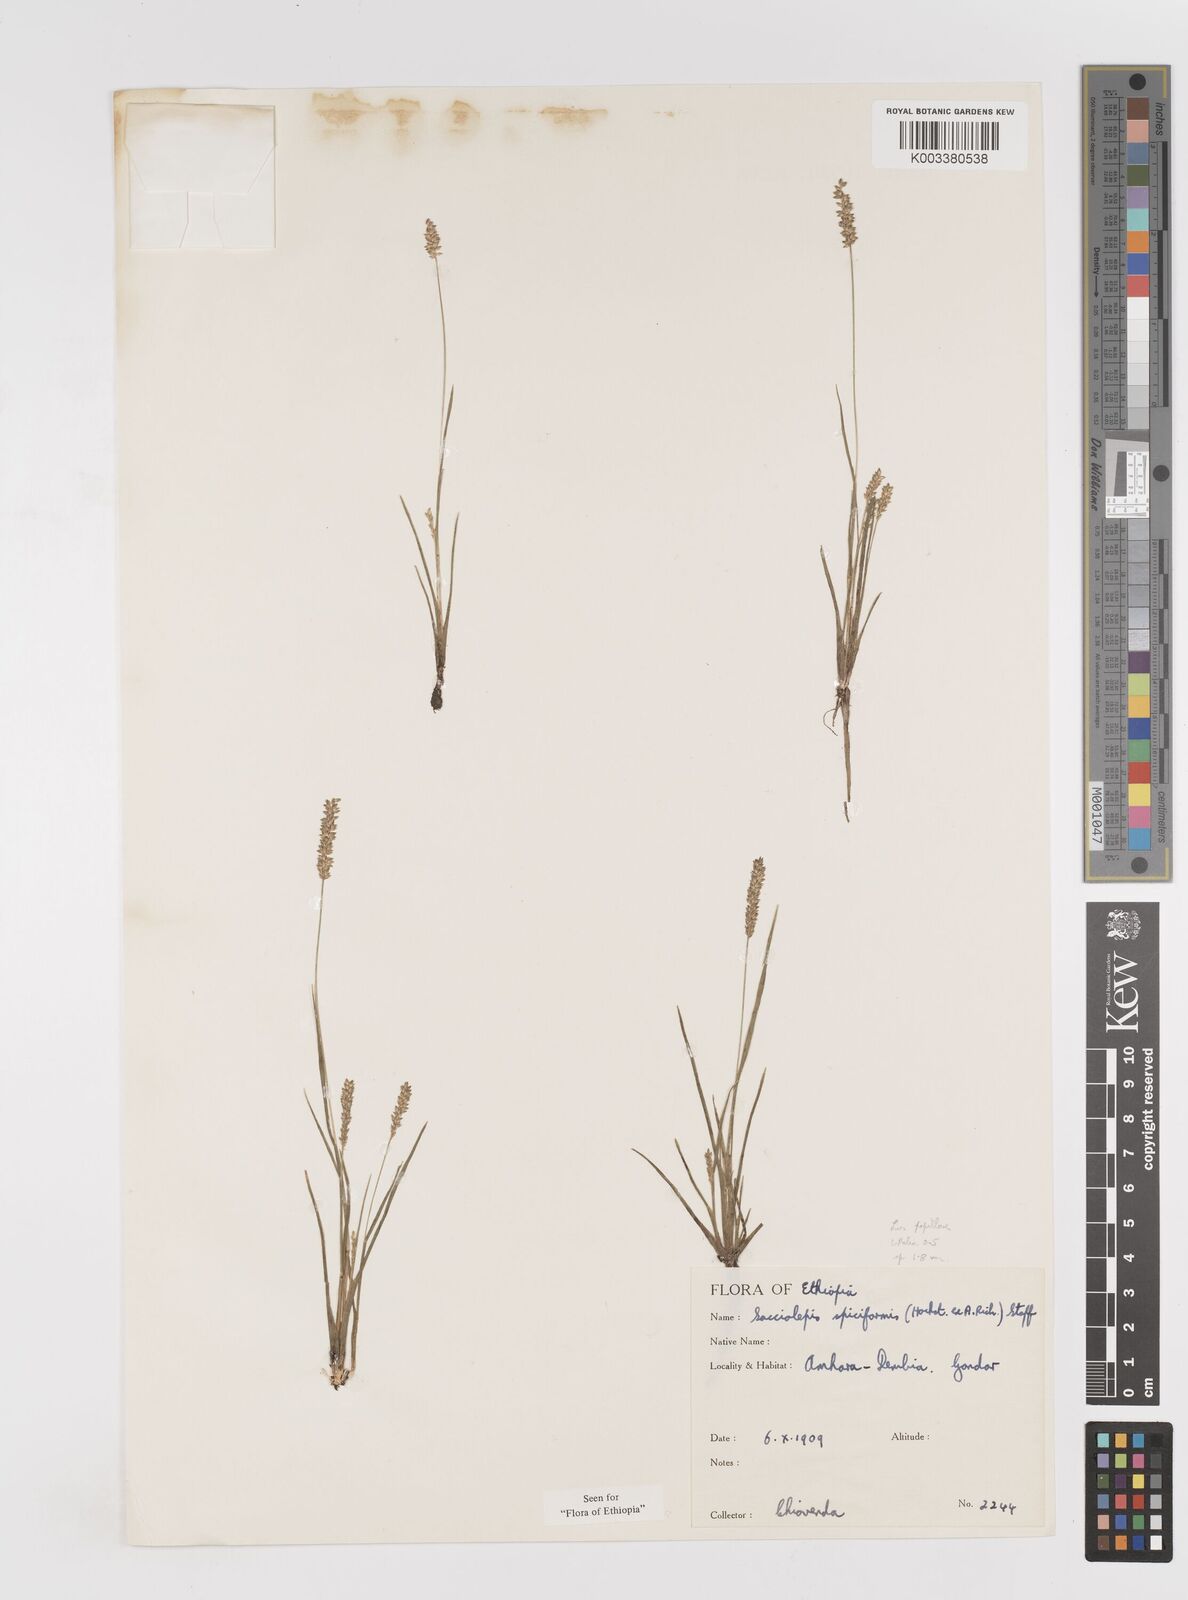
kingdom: Plantae
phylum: Tracheophyta
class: Liliopsida
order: Poales
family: Poaceae
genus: Sacciolepis
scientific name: Sacciolepis myosuroides
